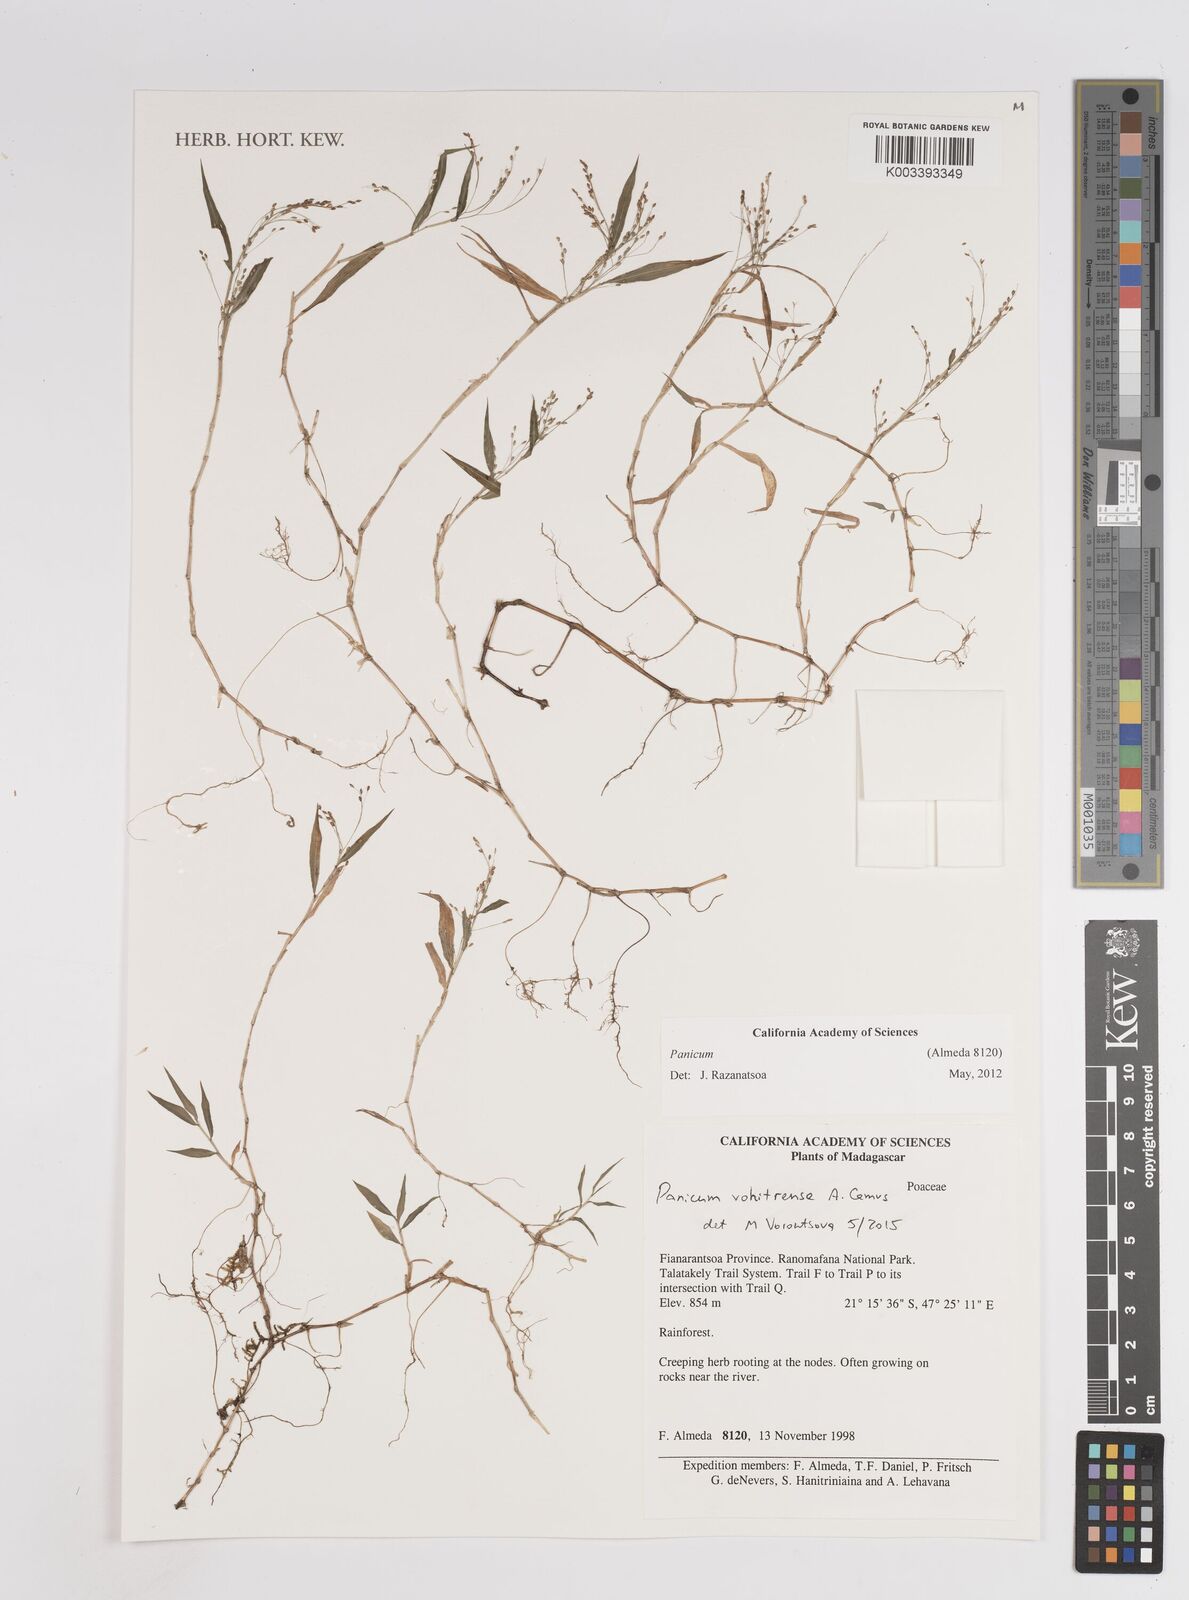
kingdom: Plantae
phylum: Tracheophyta
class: Liliopsida
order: Poales
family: Poaceae
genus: Panicum
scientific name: Panicum vohitrense
